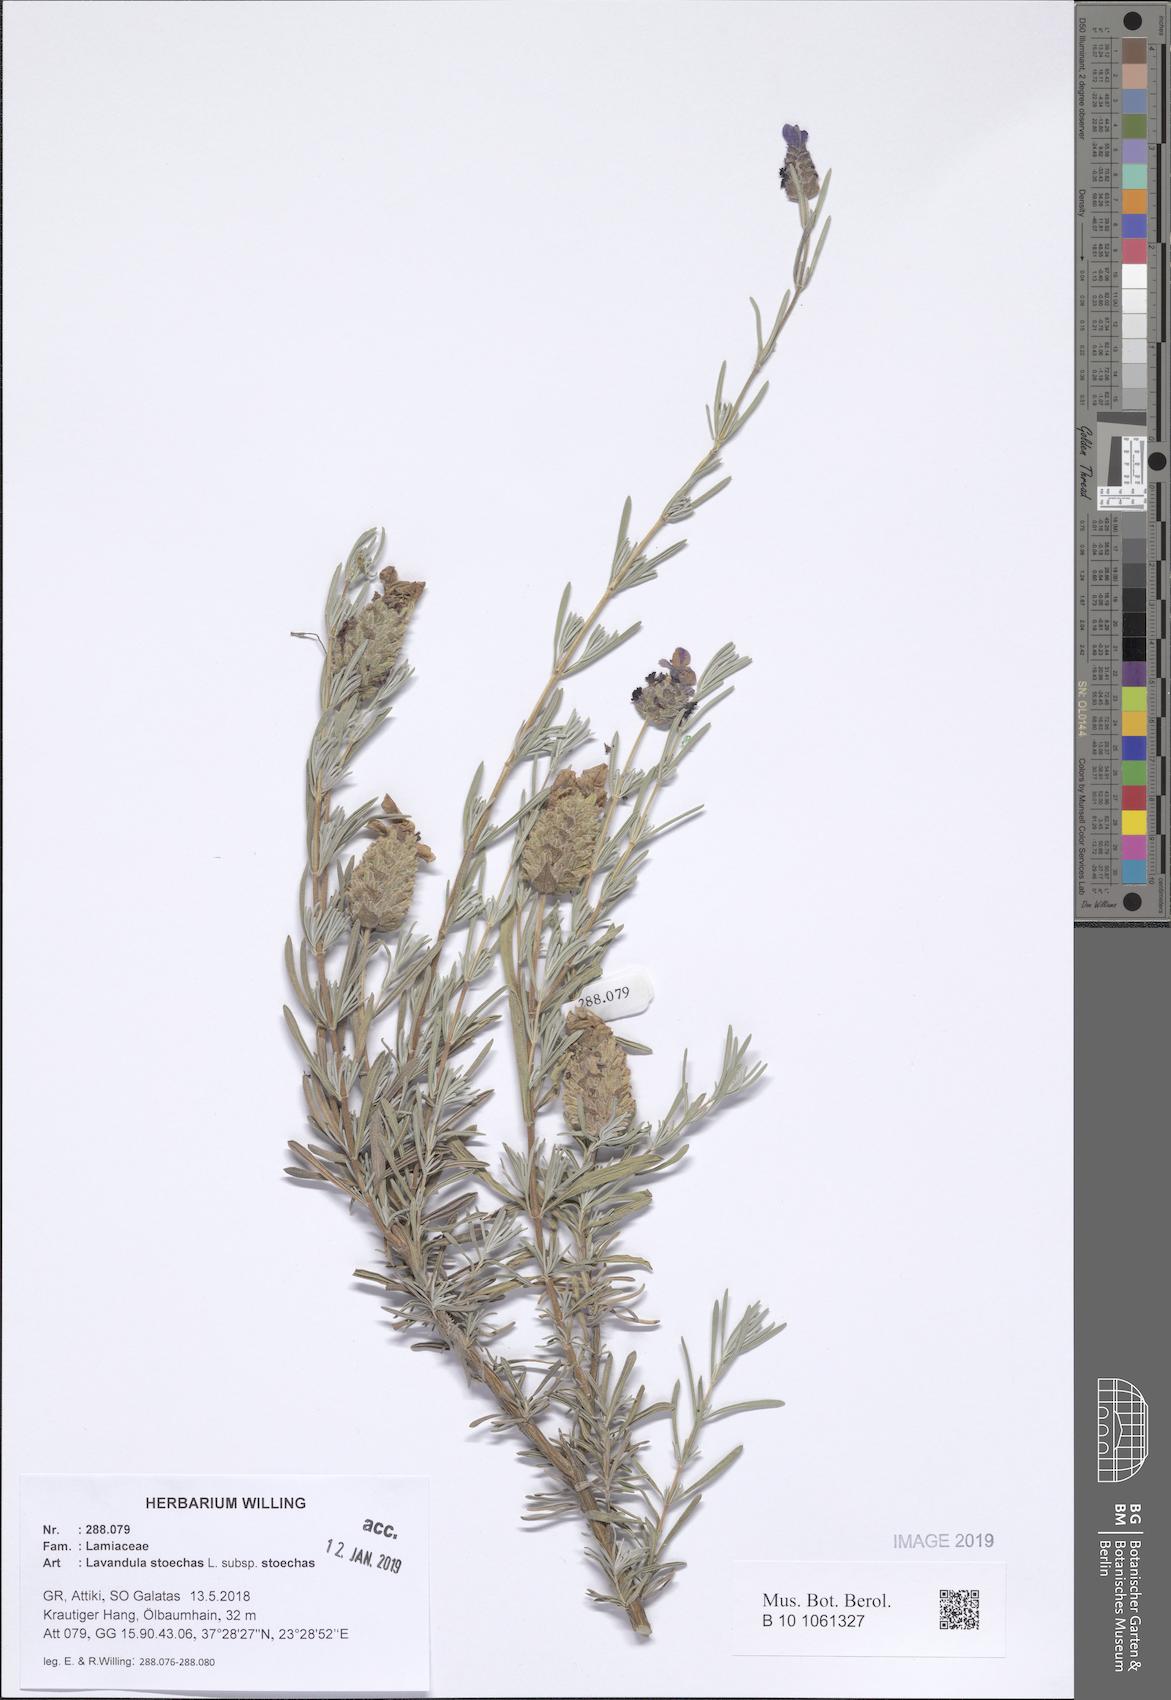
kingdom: Plantae
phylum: Tracheophyta
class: Magnoliopsida
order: Lamiales
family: Lamiaceae
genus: Lavandula
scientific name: Lavandula stoechas
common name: French lavender
